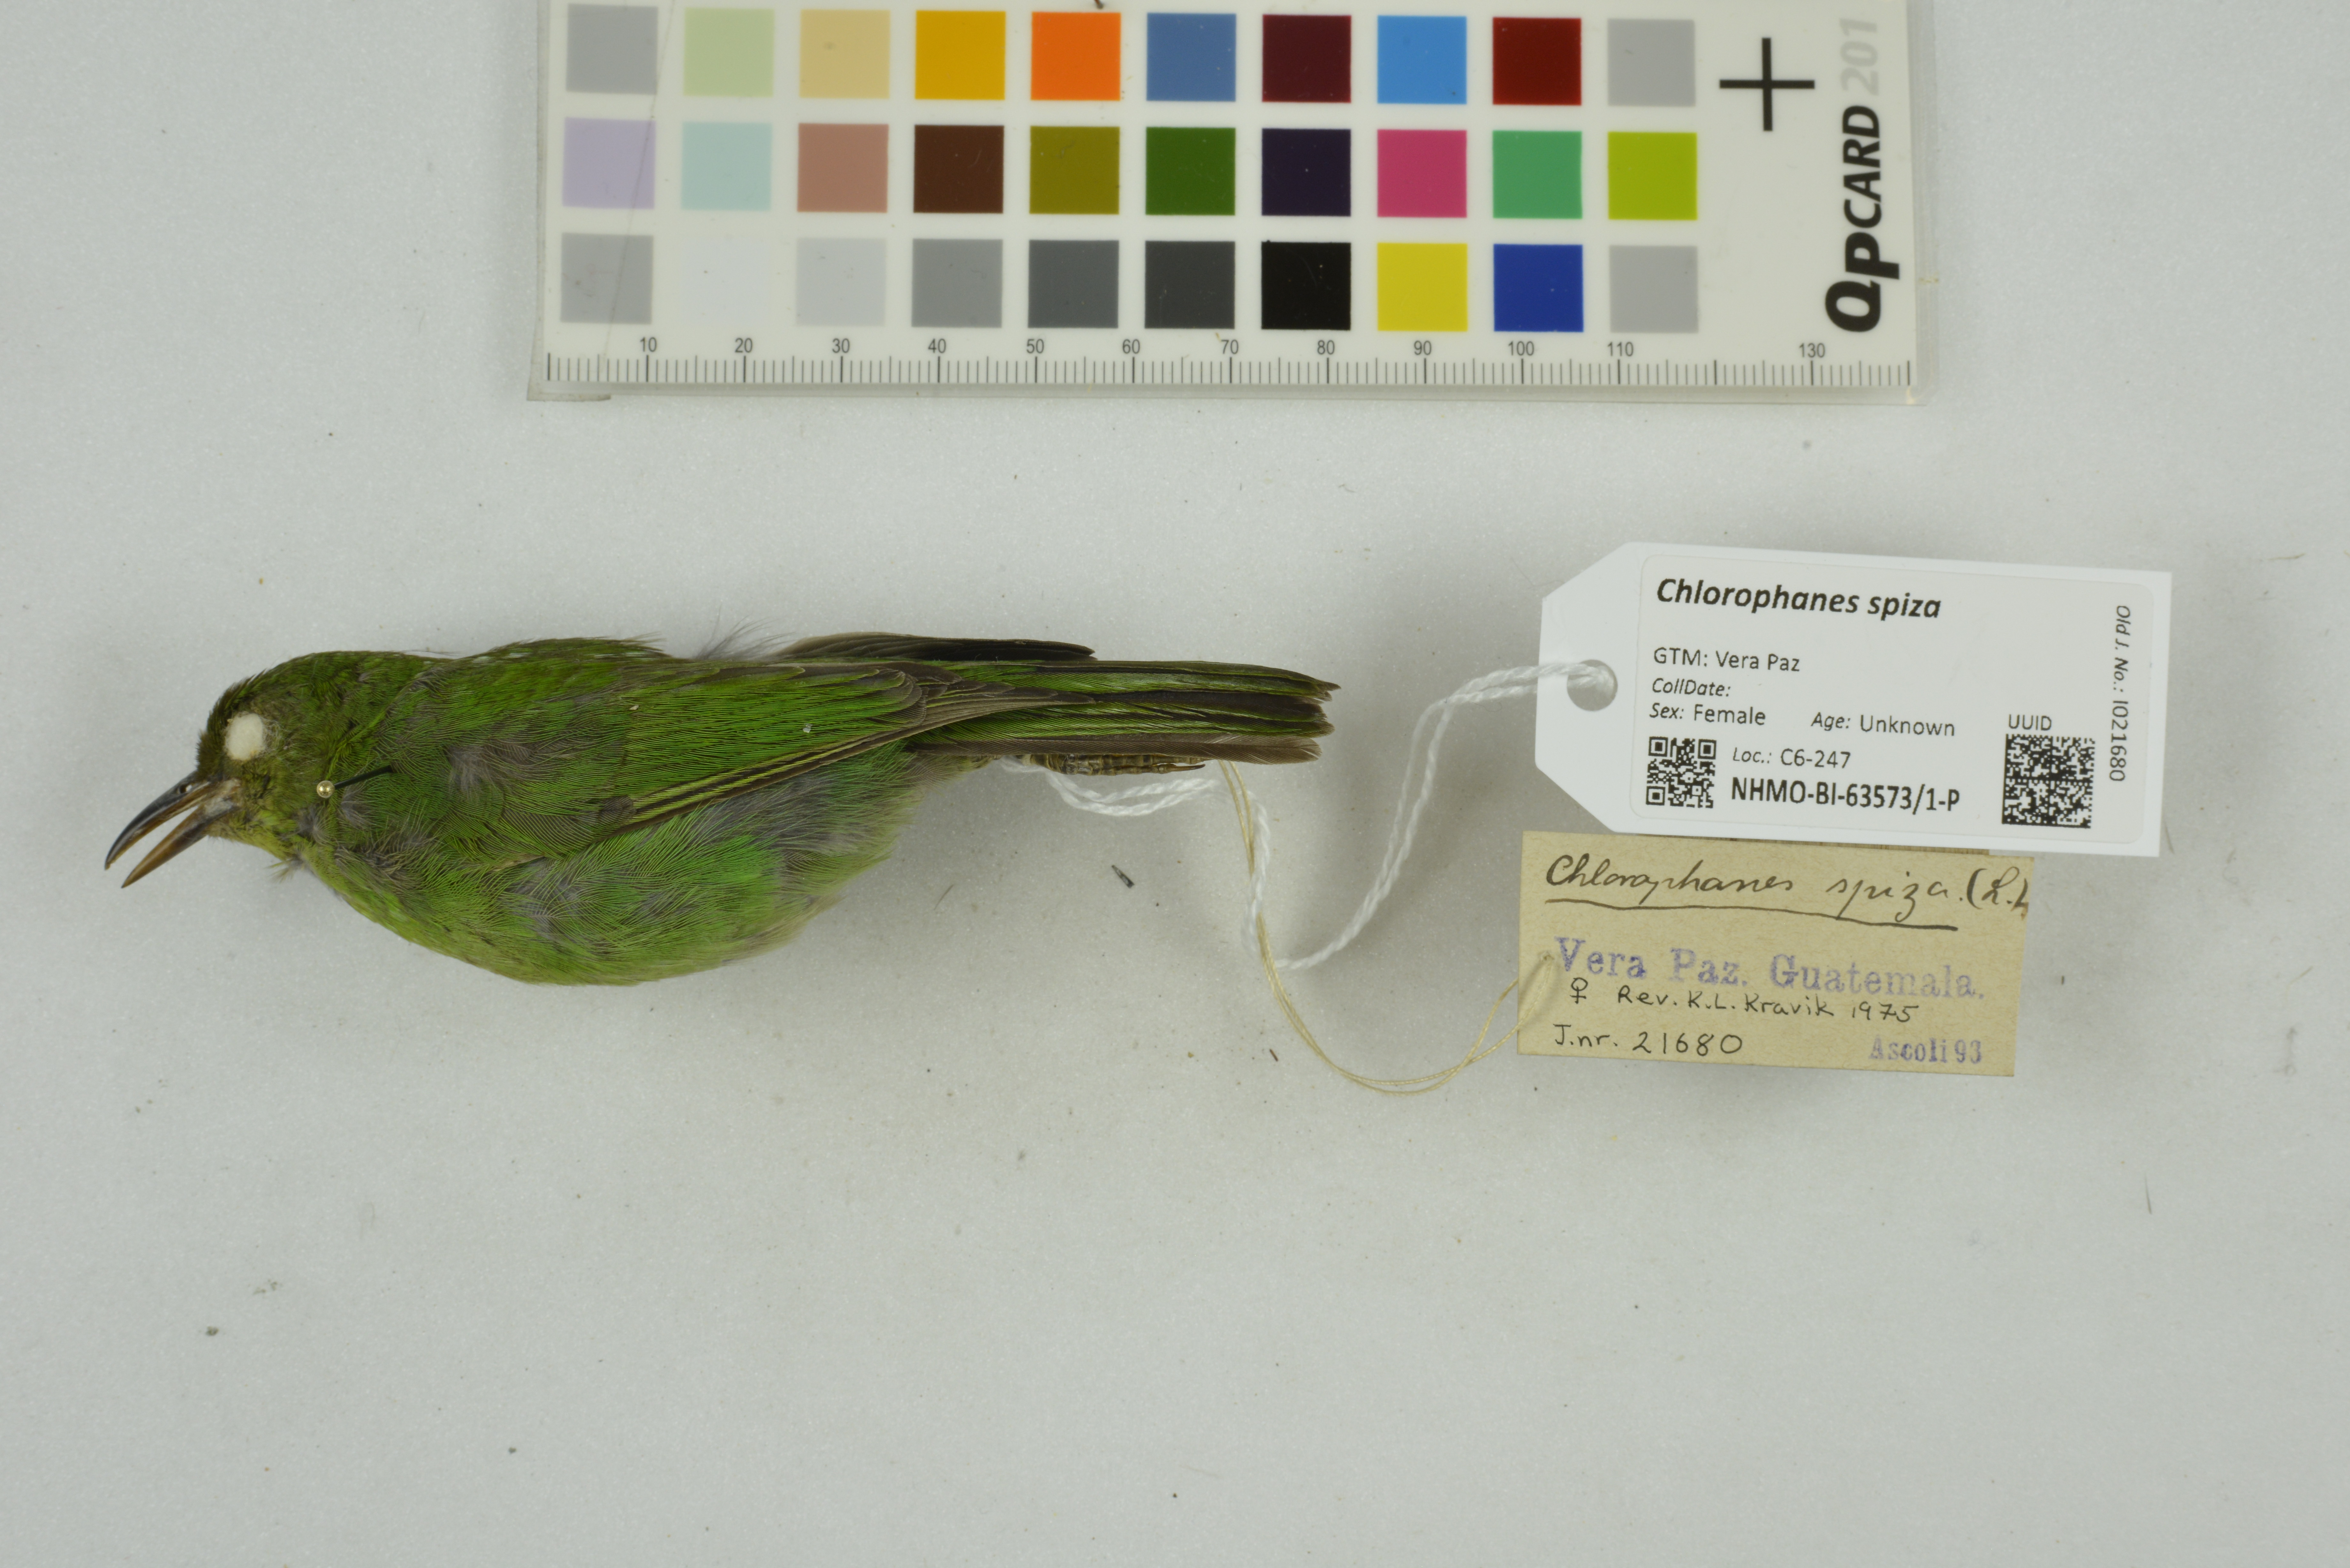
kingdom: Animalia
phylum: Chordata
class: Aves
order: Passeriformes
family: Thraupidae
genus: Chlorophanes
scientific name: Chlorophanes spiza
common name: Green honeycreeper
